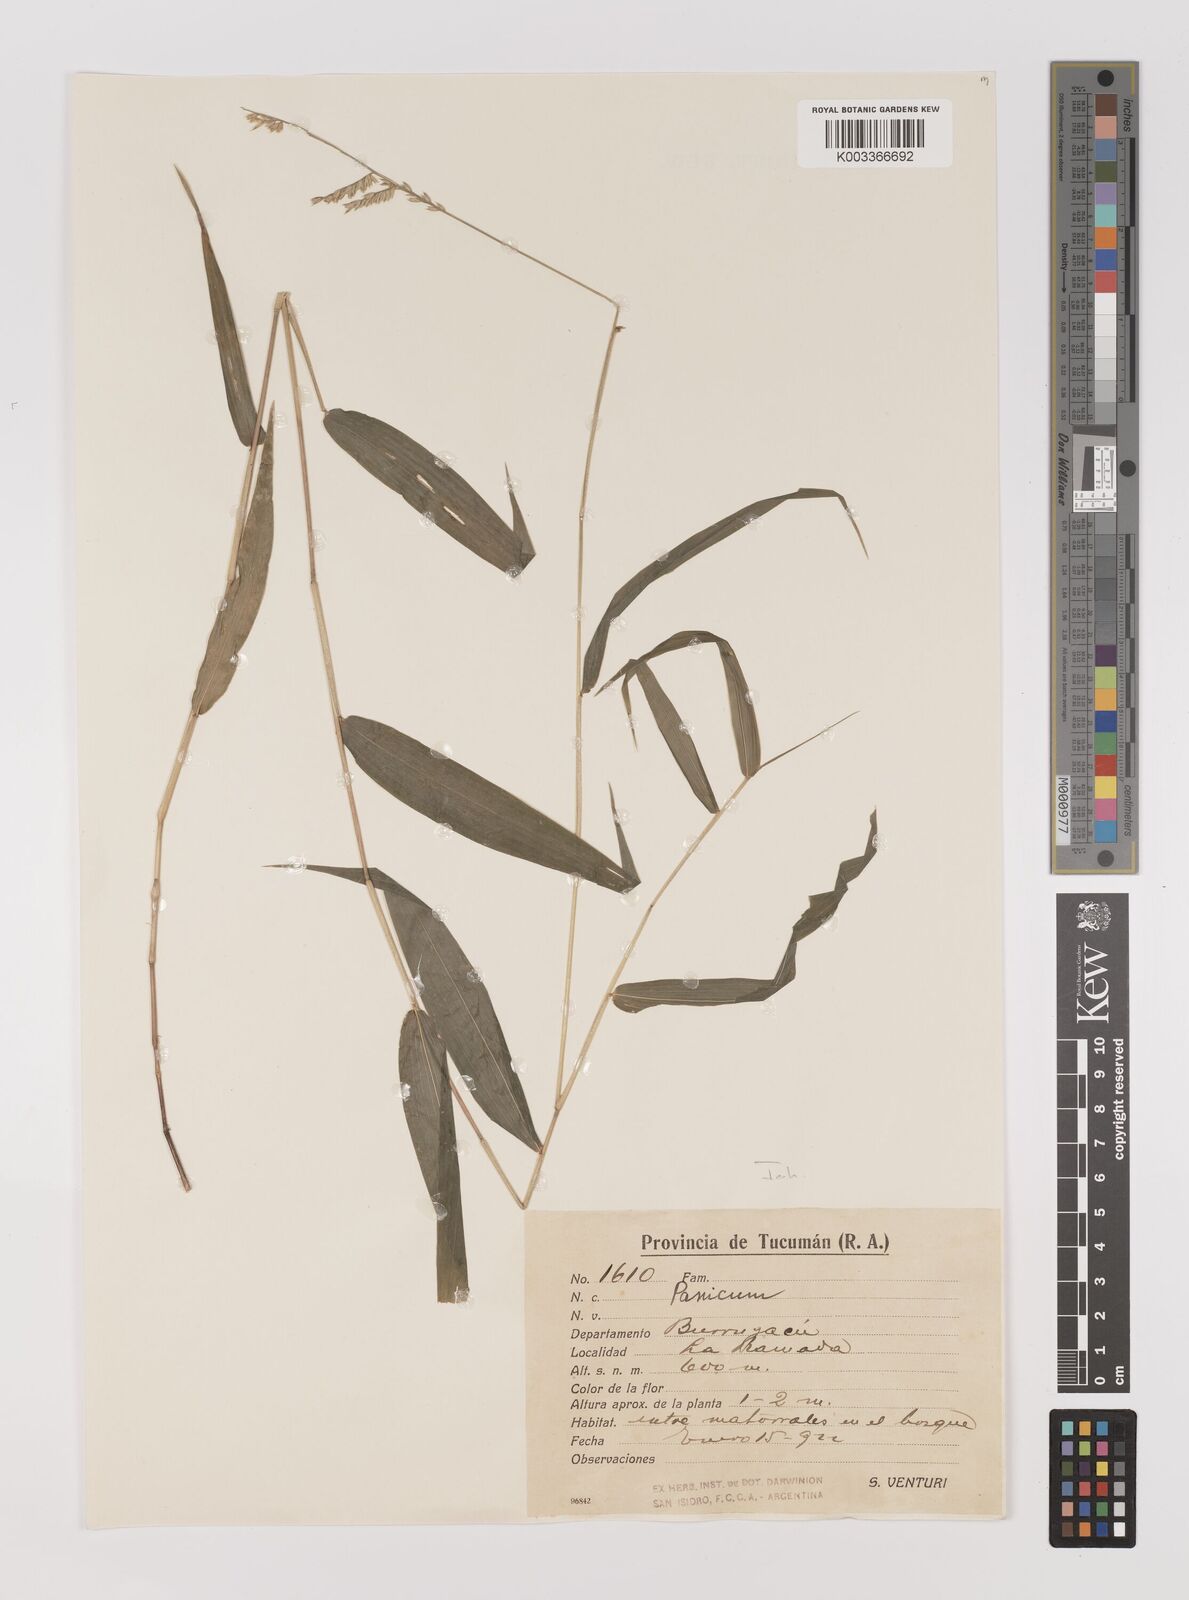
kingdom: Plantae
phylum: Tracheophyta
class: Liliopsida
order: Poales
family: Poaceae
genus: Oedochloa
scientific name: Oedochloa minarum
